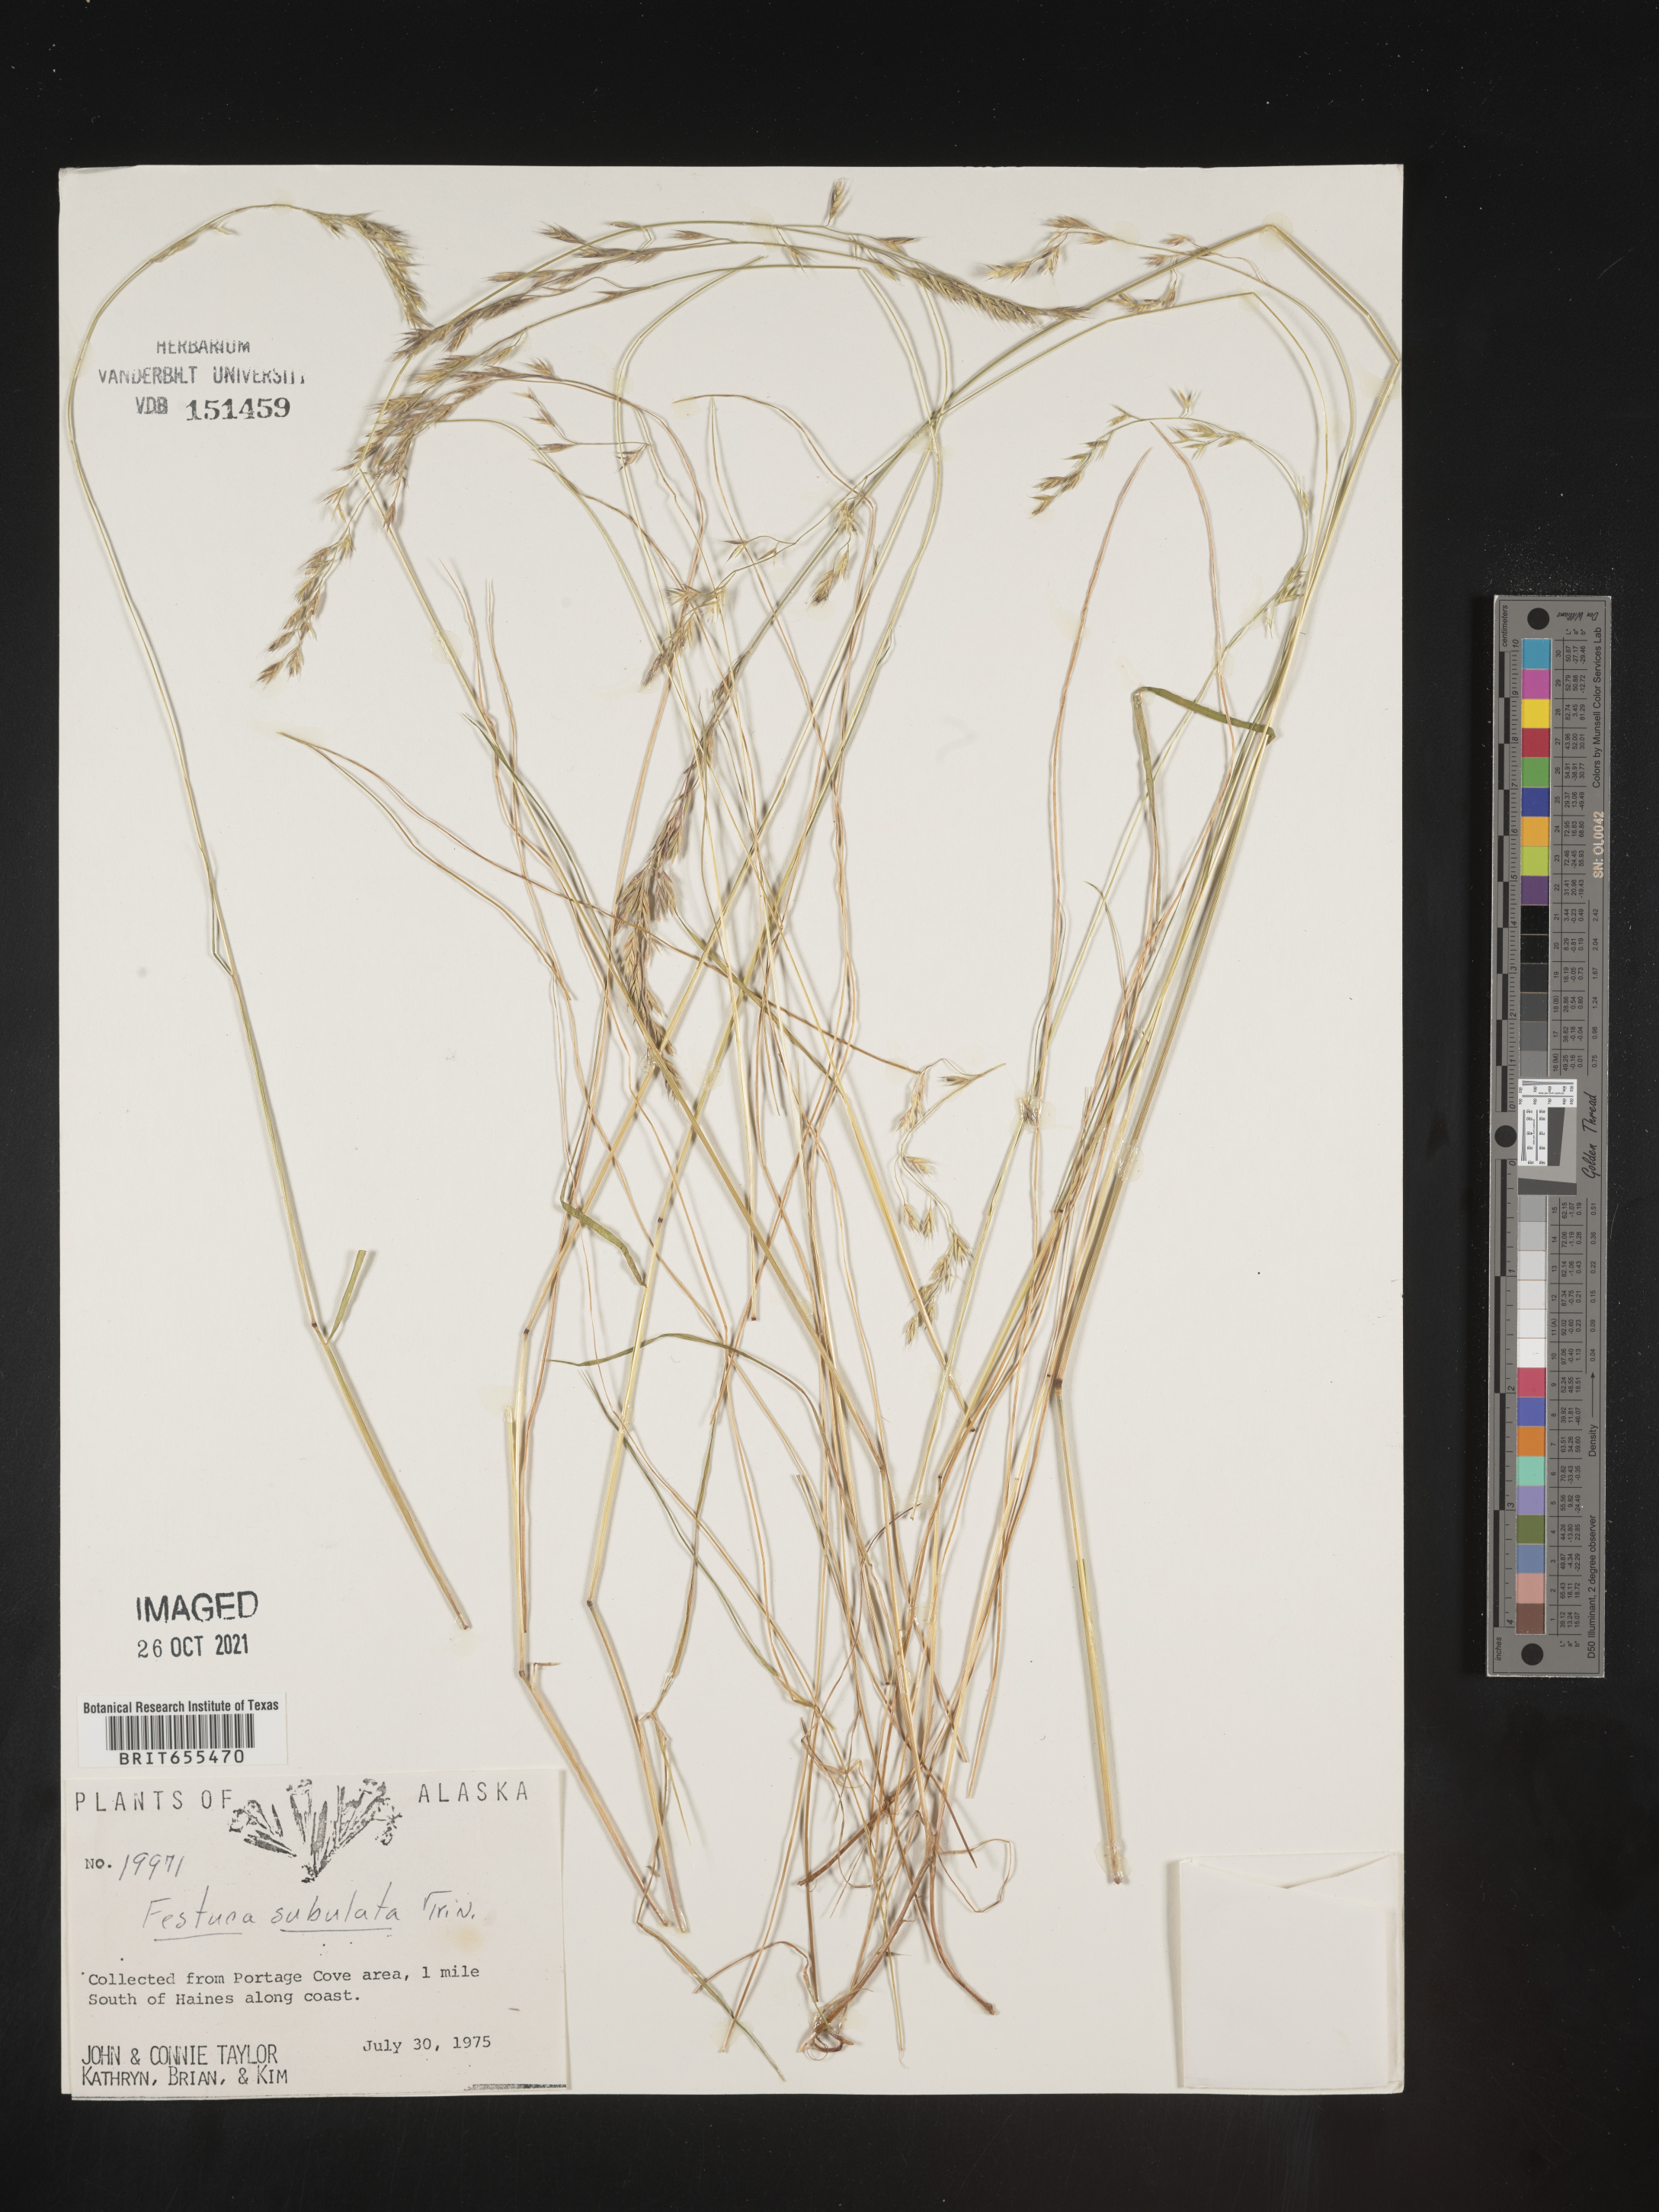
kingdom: Plantae
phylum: Tracheophyta
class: Liliopsida
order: Poales
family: Poaceae
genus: Festuca
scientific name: Festuca
